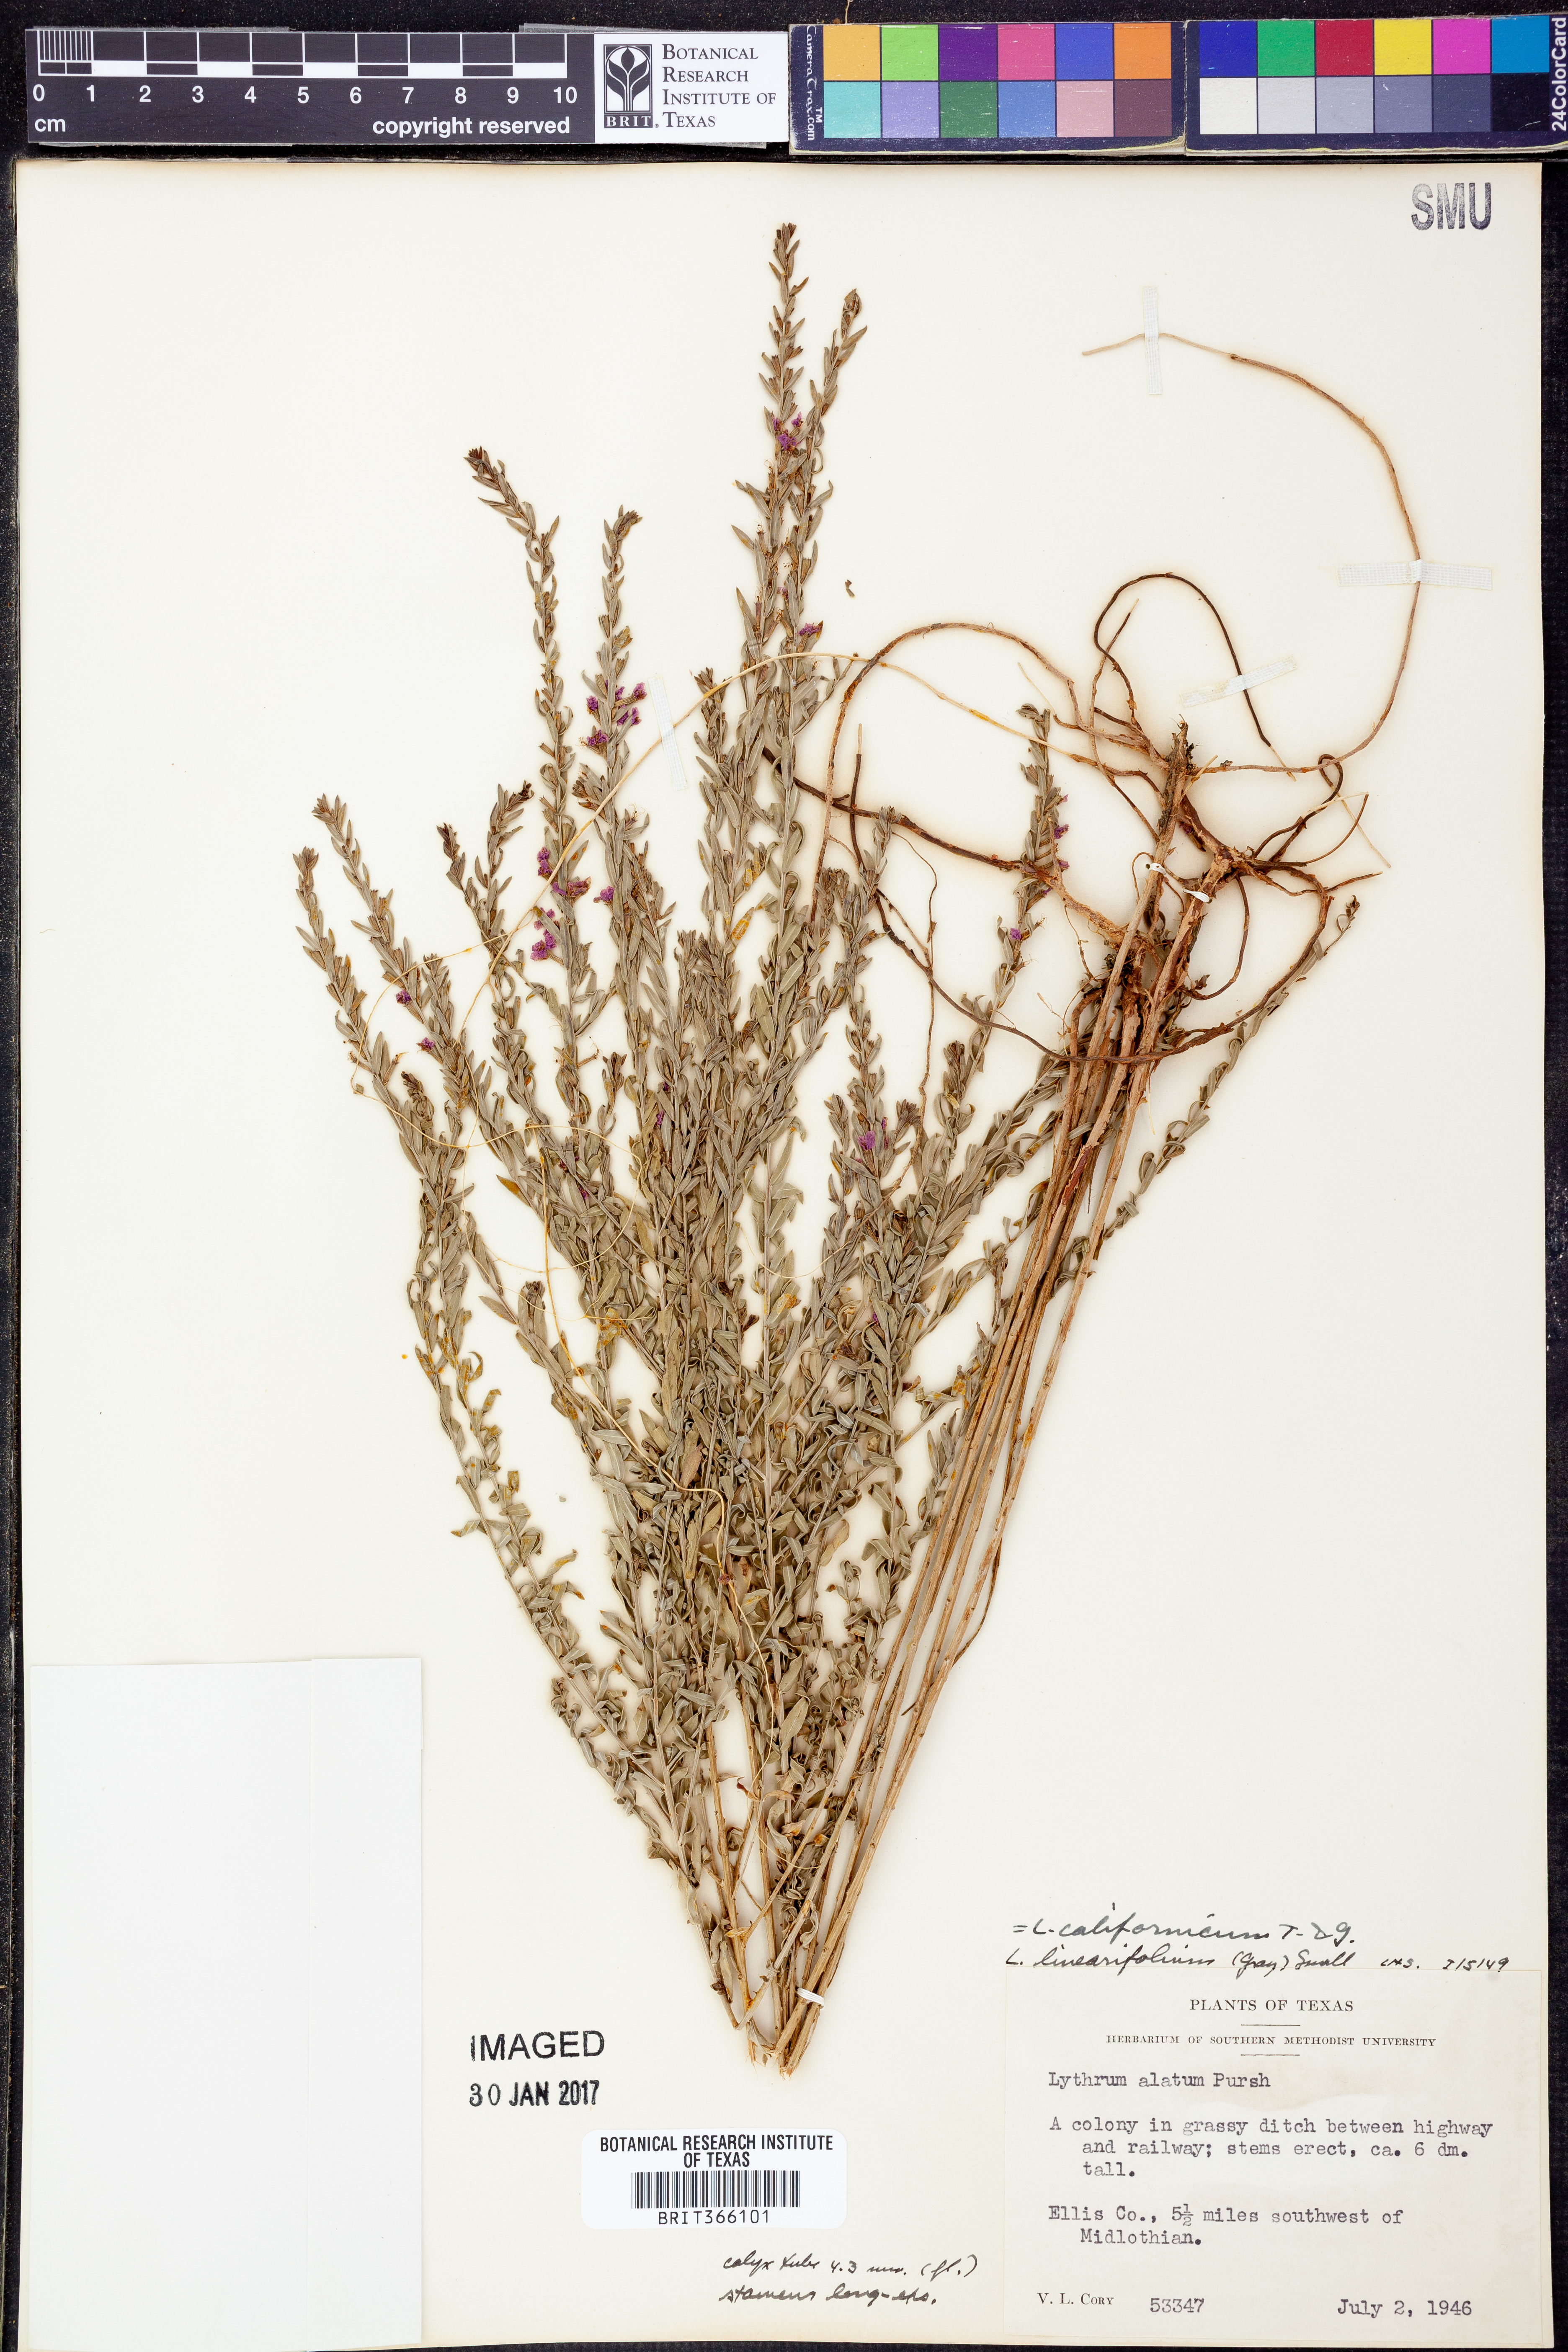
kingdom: Plantae
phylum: Tracheophyta
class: Magnoliopsida
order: Myrtales
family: Lythraceae
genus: Lythrum
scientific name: Lythrum californicum
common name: California loosestrife
